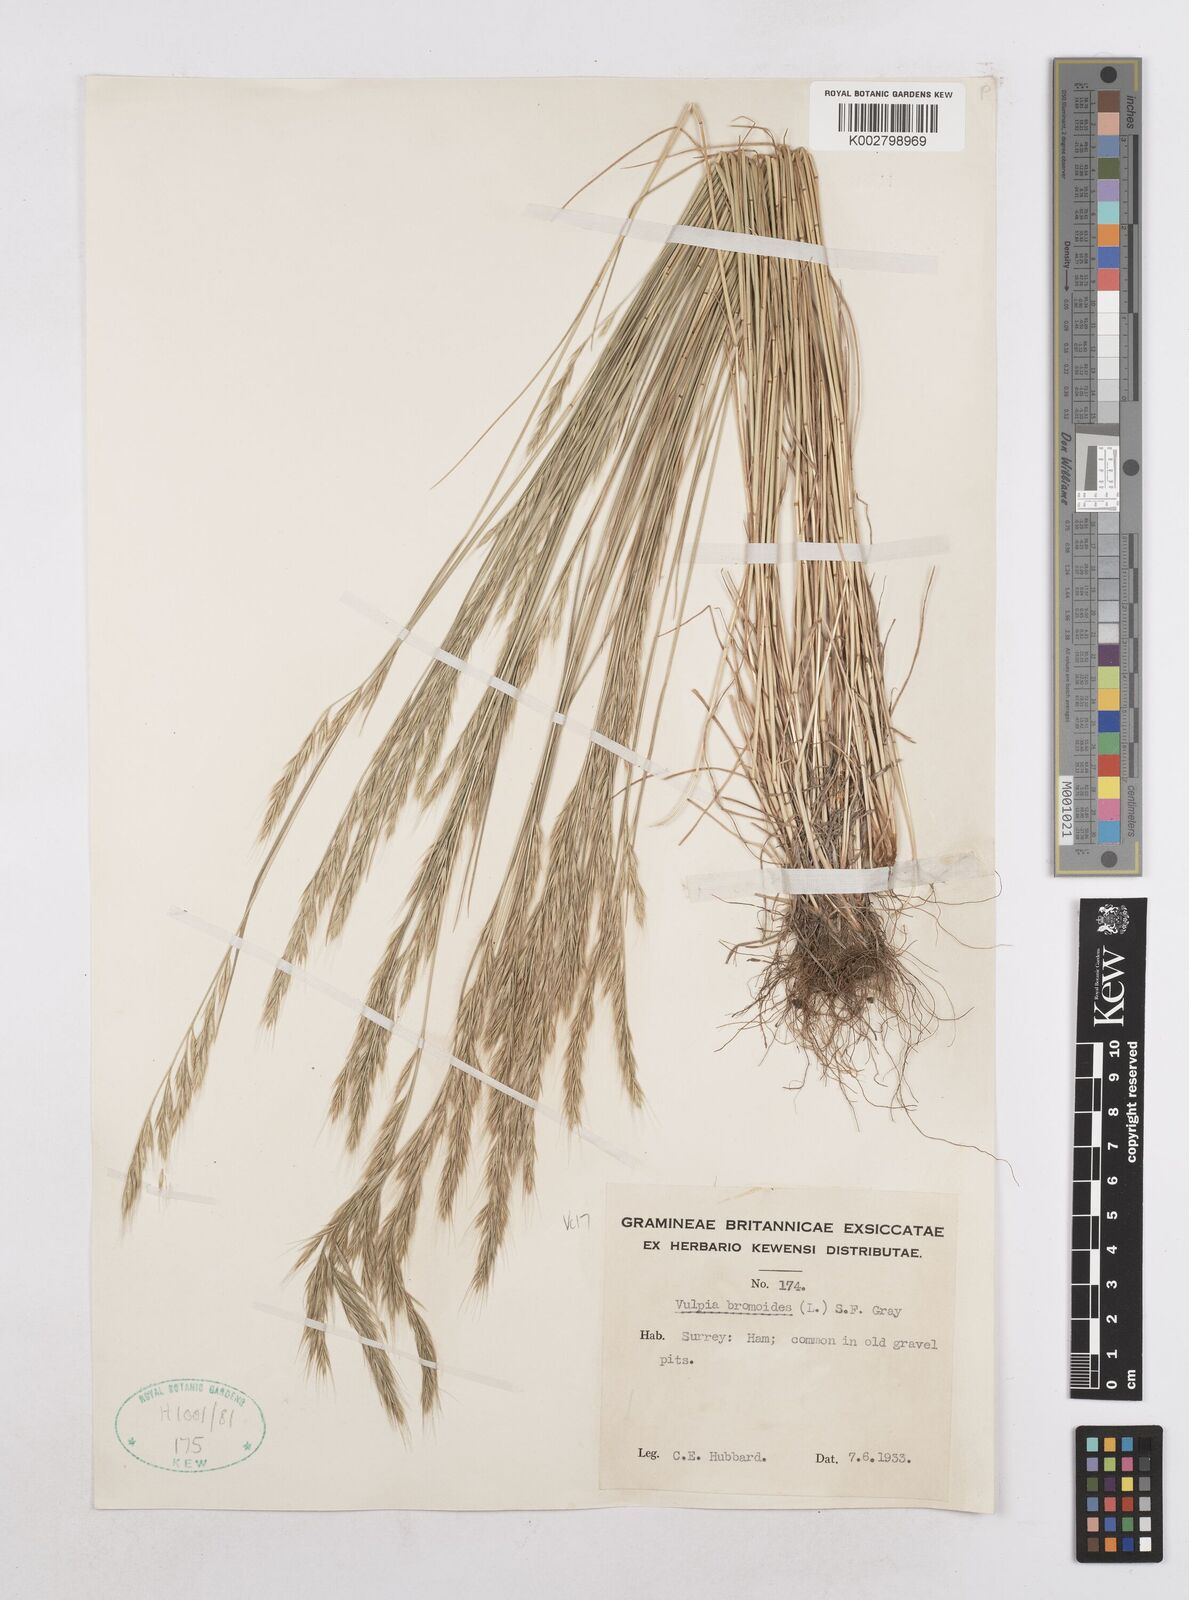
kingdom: Plantae
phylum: Tracheophyta
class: Liliopsida
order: Poales
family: Poaceae
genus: Festuca
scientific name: Festuca bromoides
